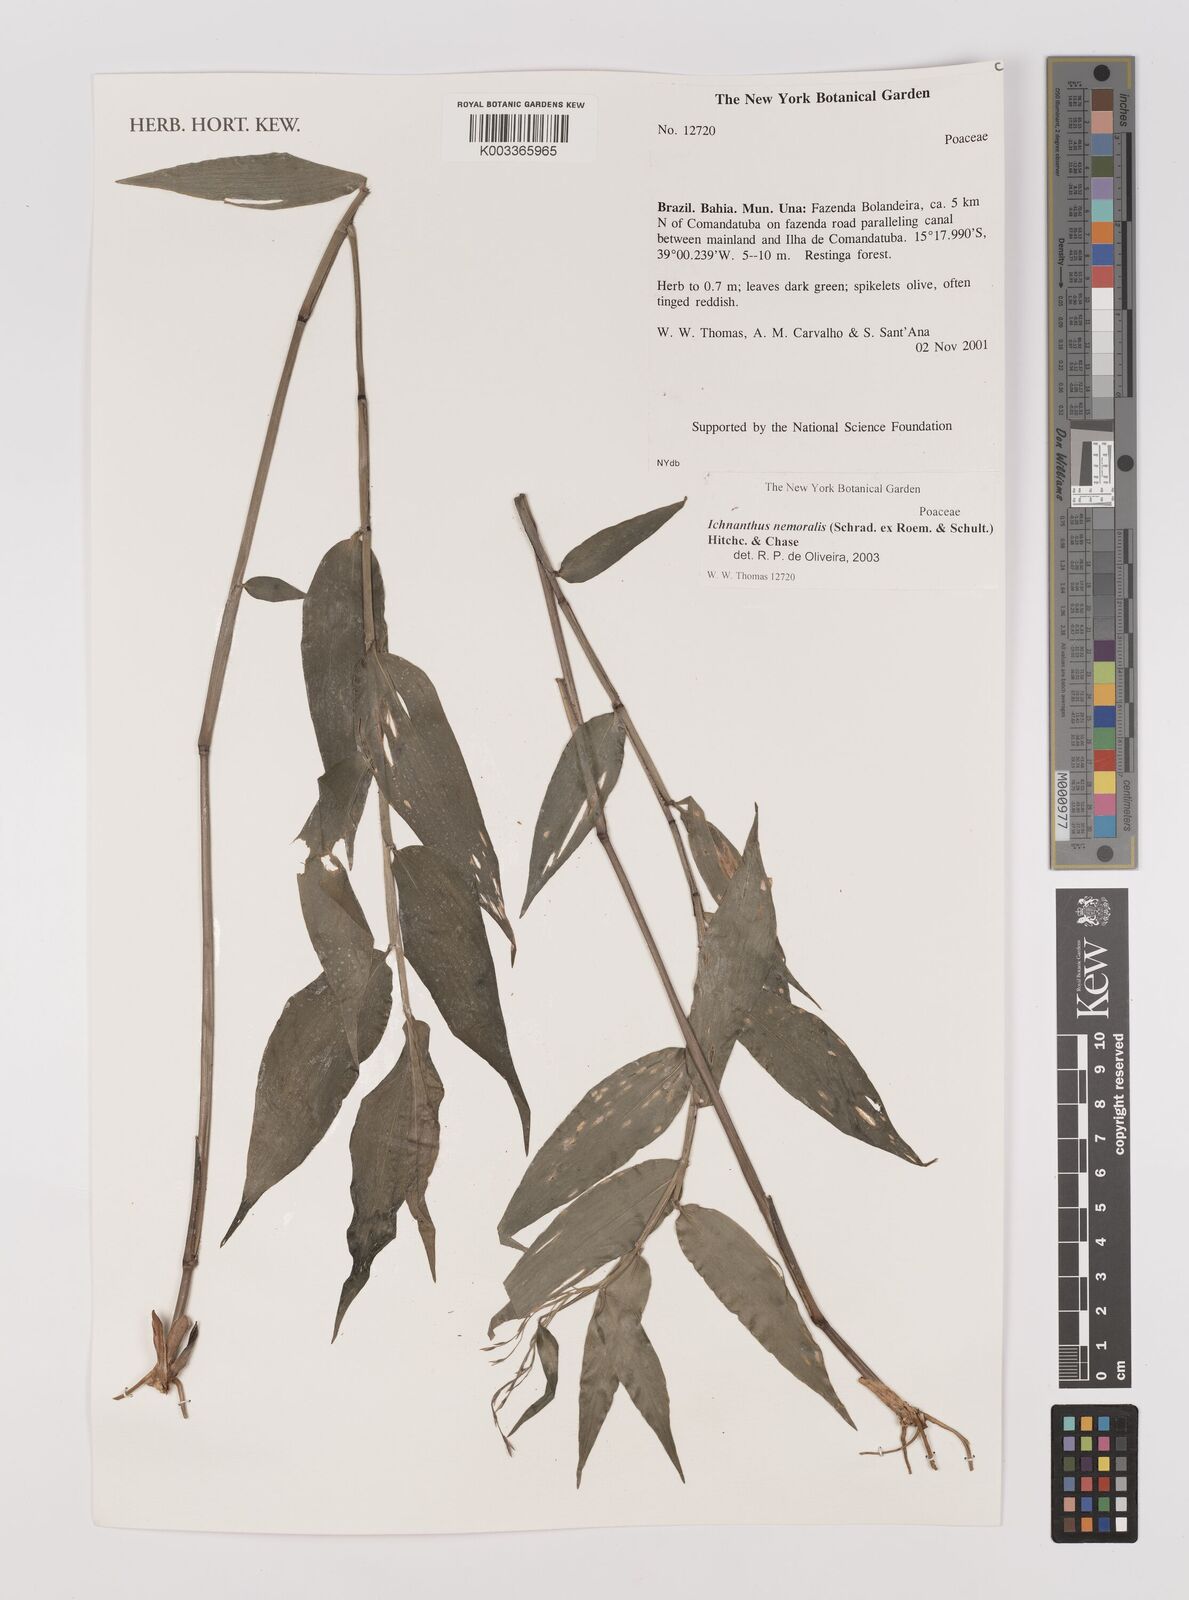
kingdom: Plantae
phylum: Tracheophyta
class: Liliopsida
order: Poales
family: Poaceae
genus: Ichnanthus
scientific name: Ichnanthus nemoralis
